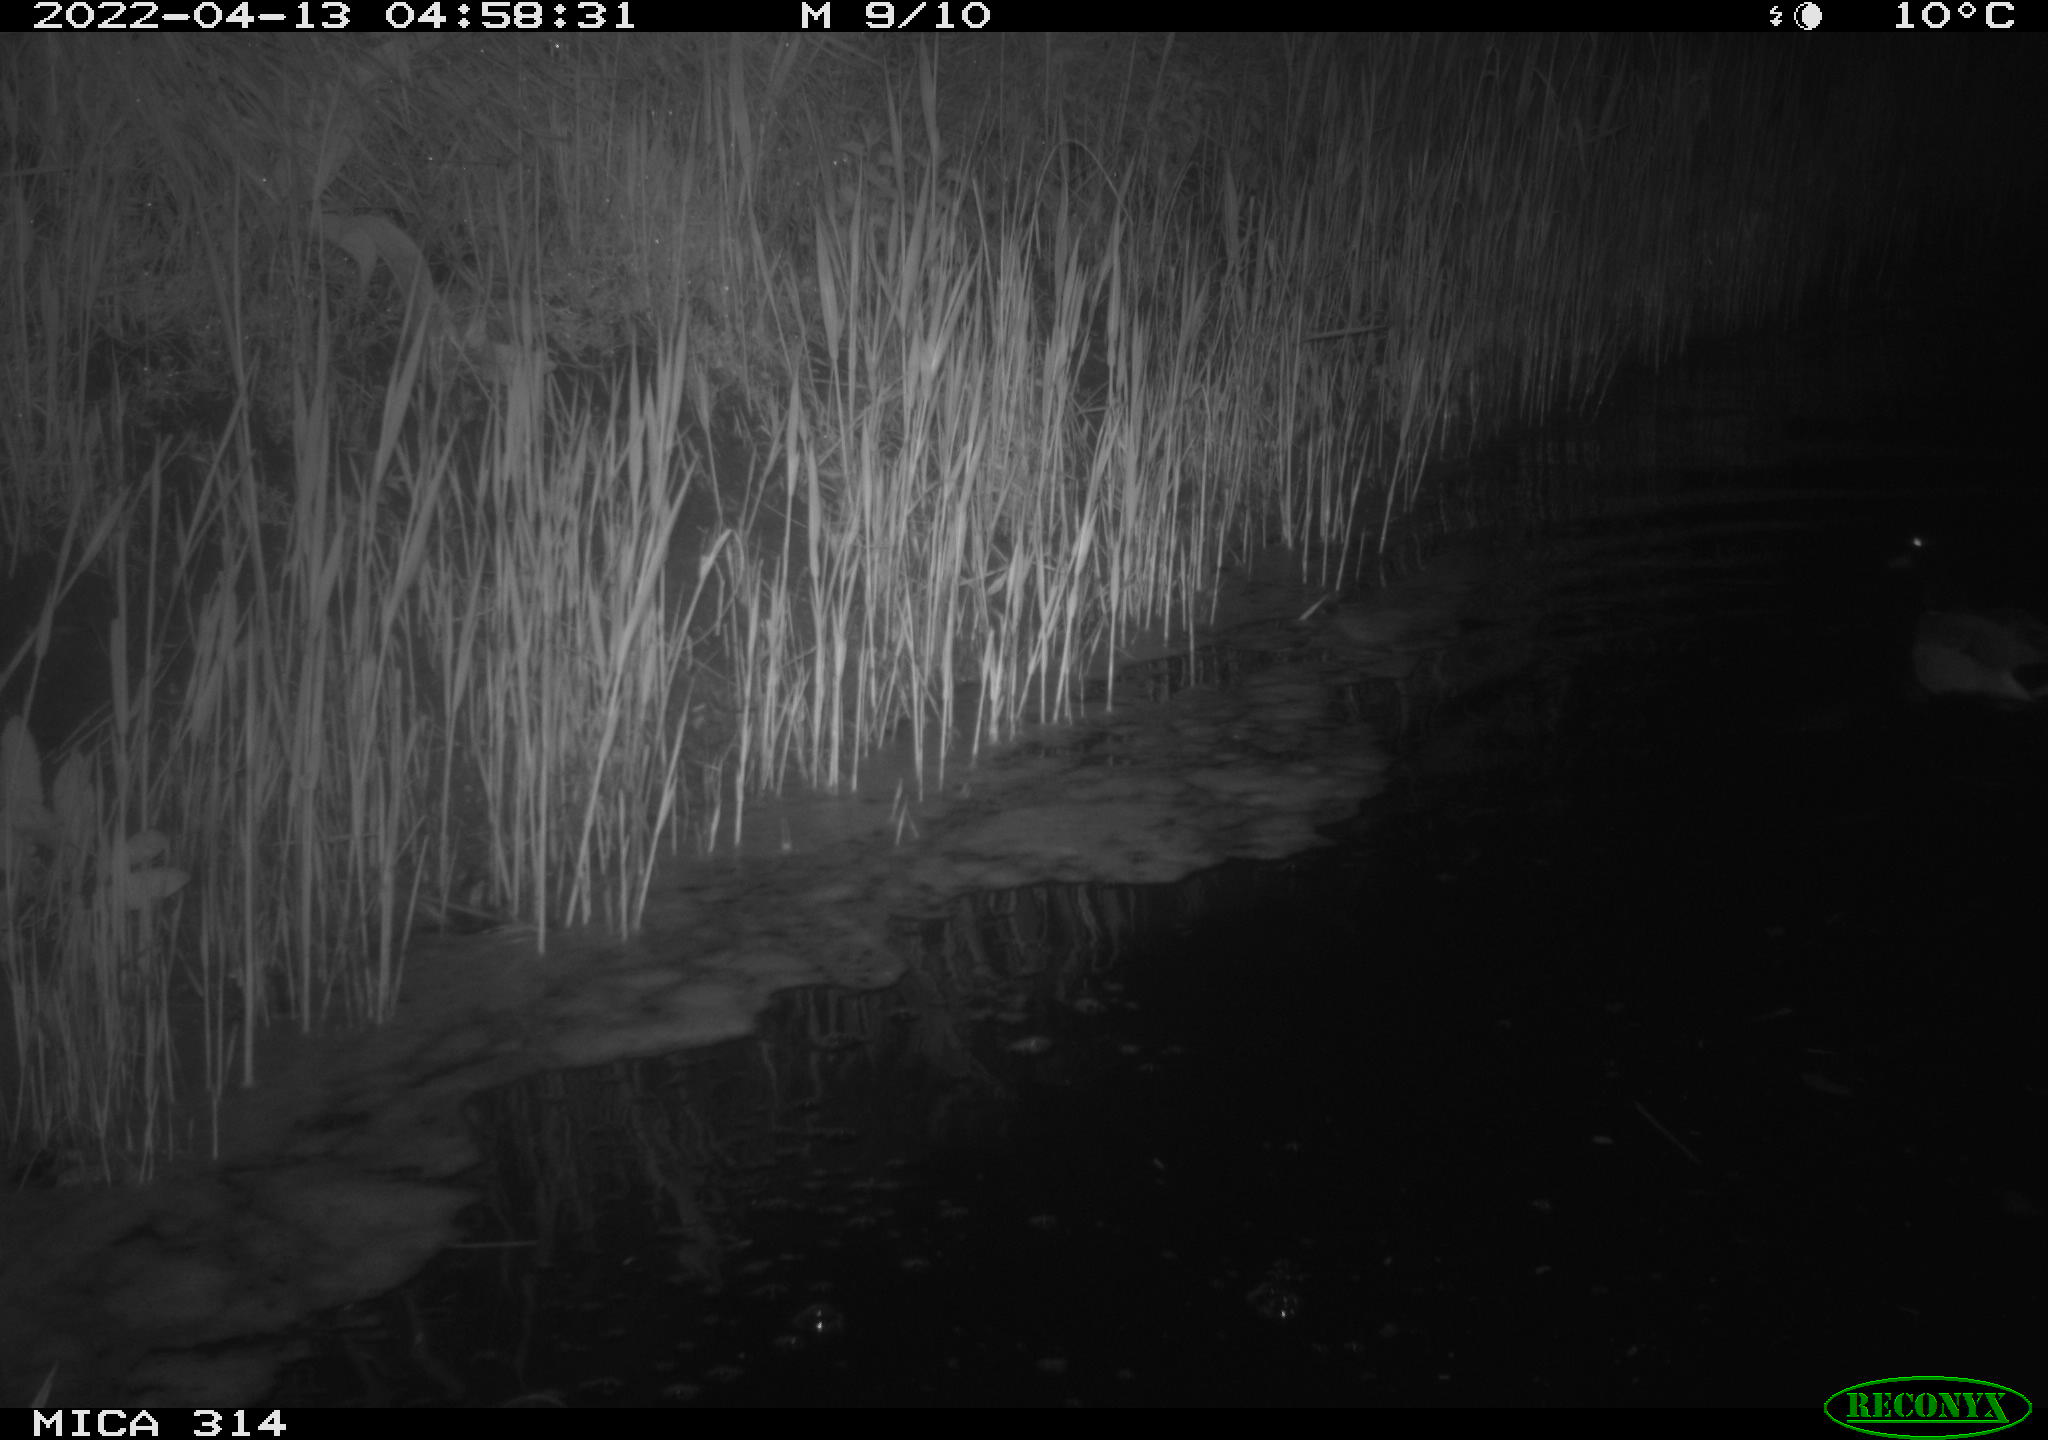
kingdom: Animalia
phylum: Chordata
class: Aves
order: Anseriformes
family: Anatidae
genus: Anas
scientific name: Anas platyrhynchos
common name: Mallard
